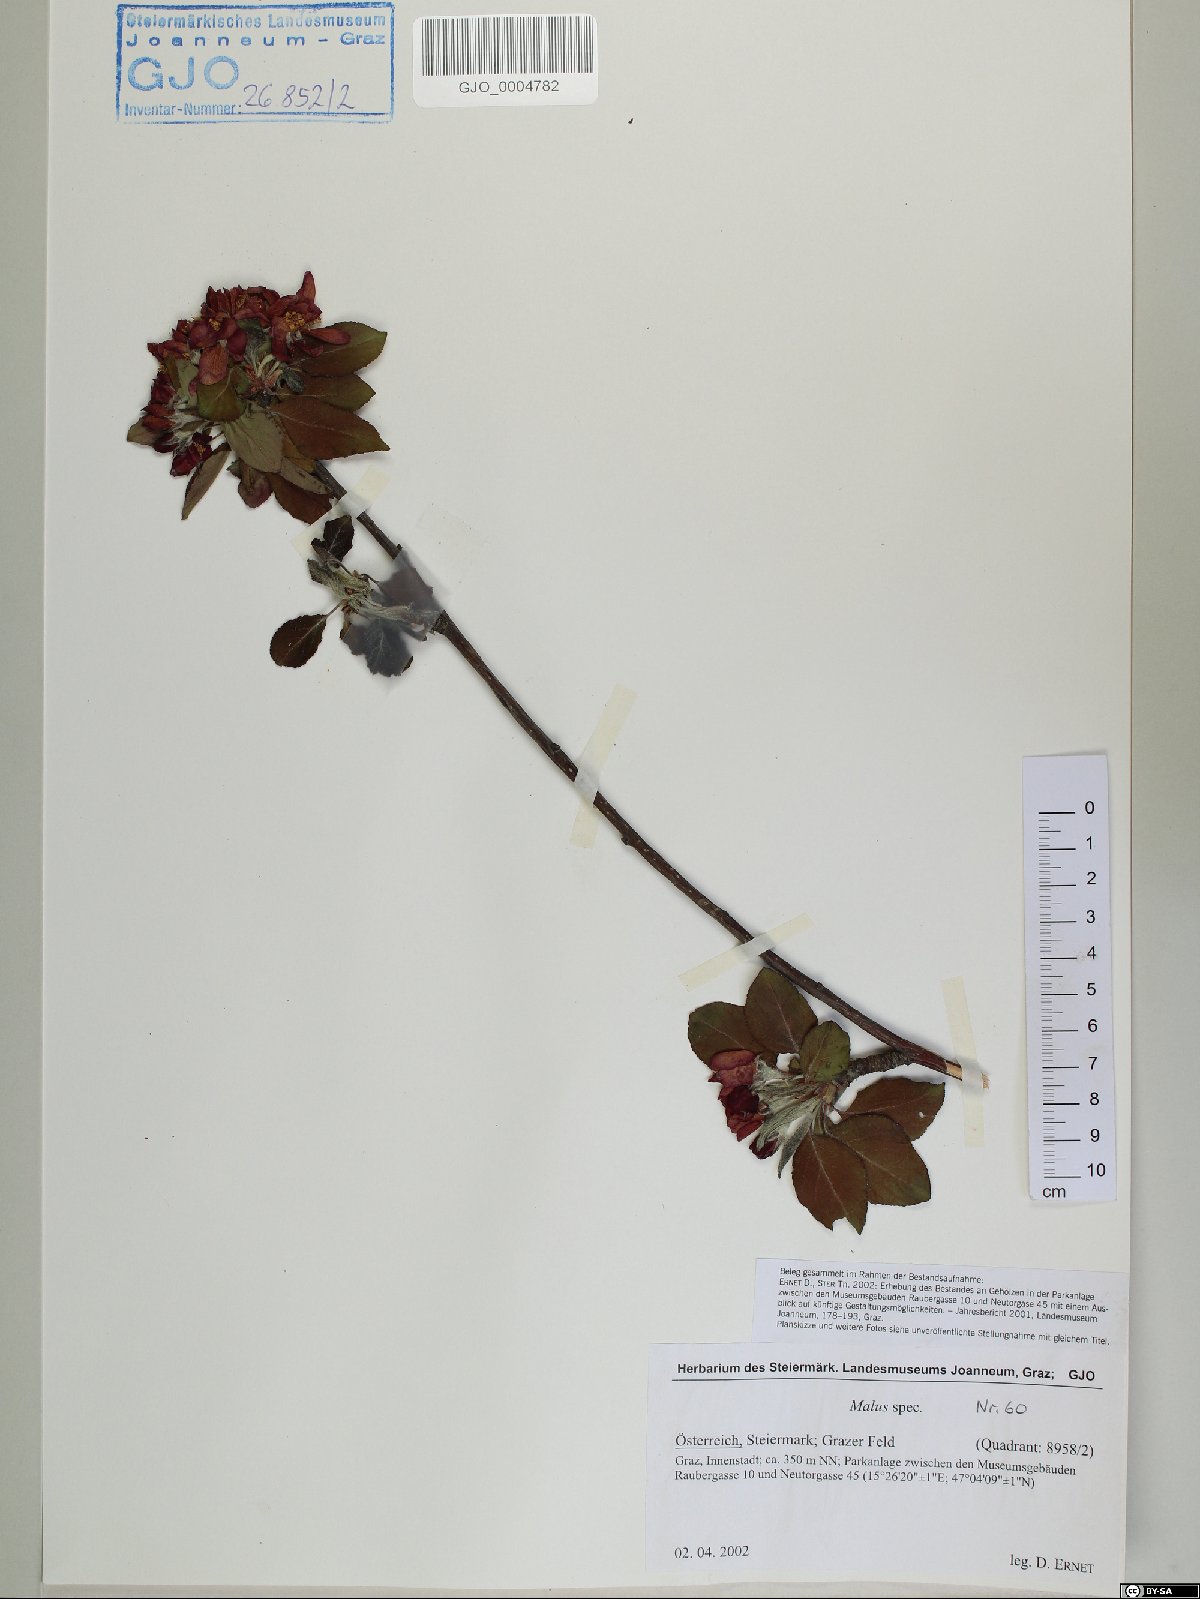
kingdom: Plantae
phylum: Tracheophyta
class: Magnoliopsida
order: Rosales
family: Rosaceae
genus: Malus
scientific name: Malus
